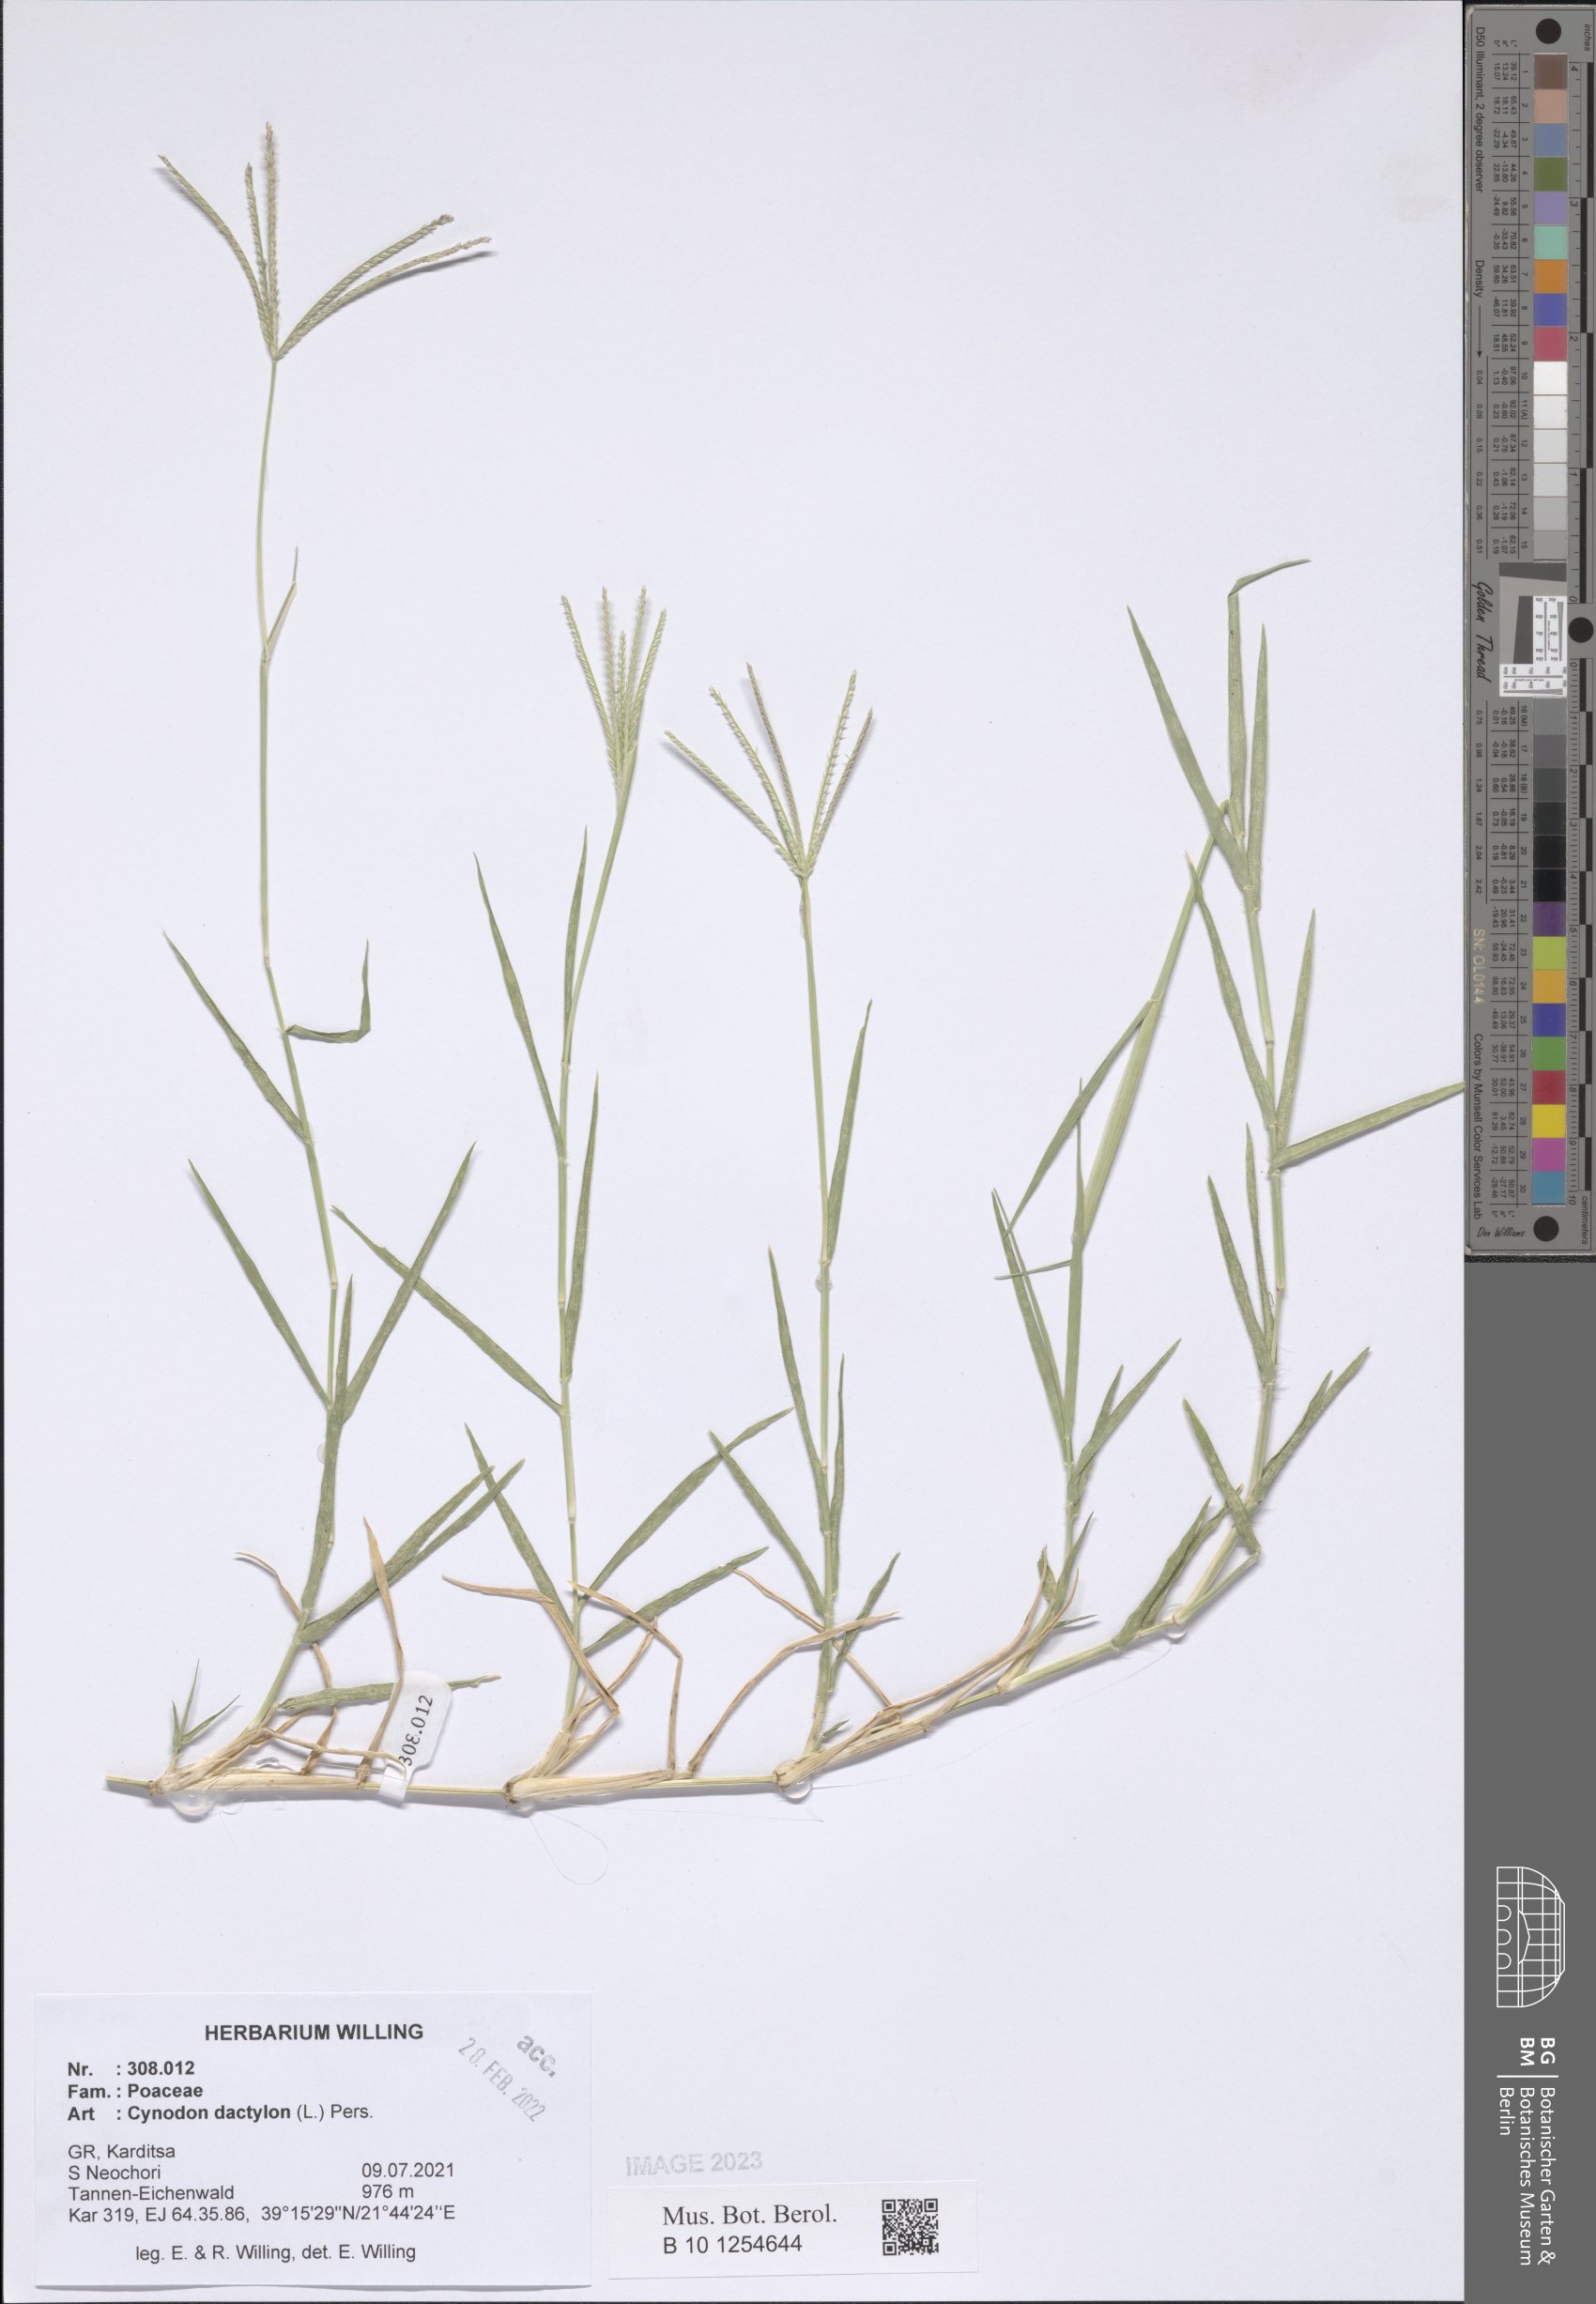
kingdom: Plantae
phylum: Tracheophyta
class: Liliopsida
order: Poales
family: Poaceae
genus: Cynodon
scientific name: Cynodon dactylon
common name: Bermuda grass
